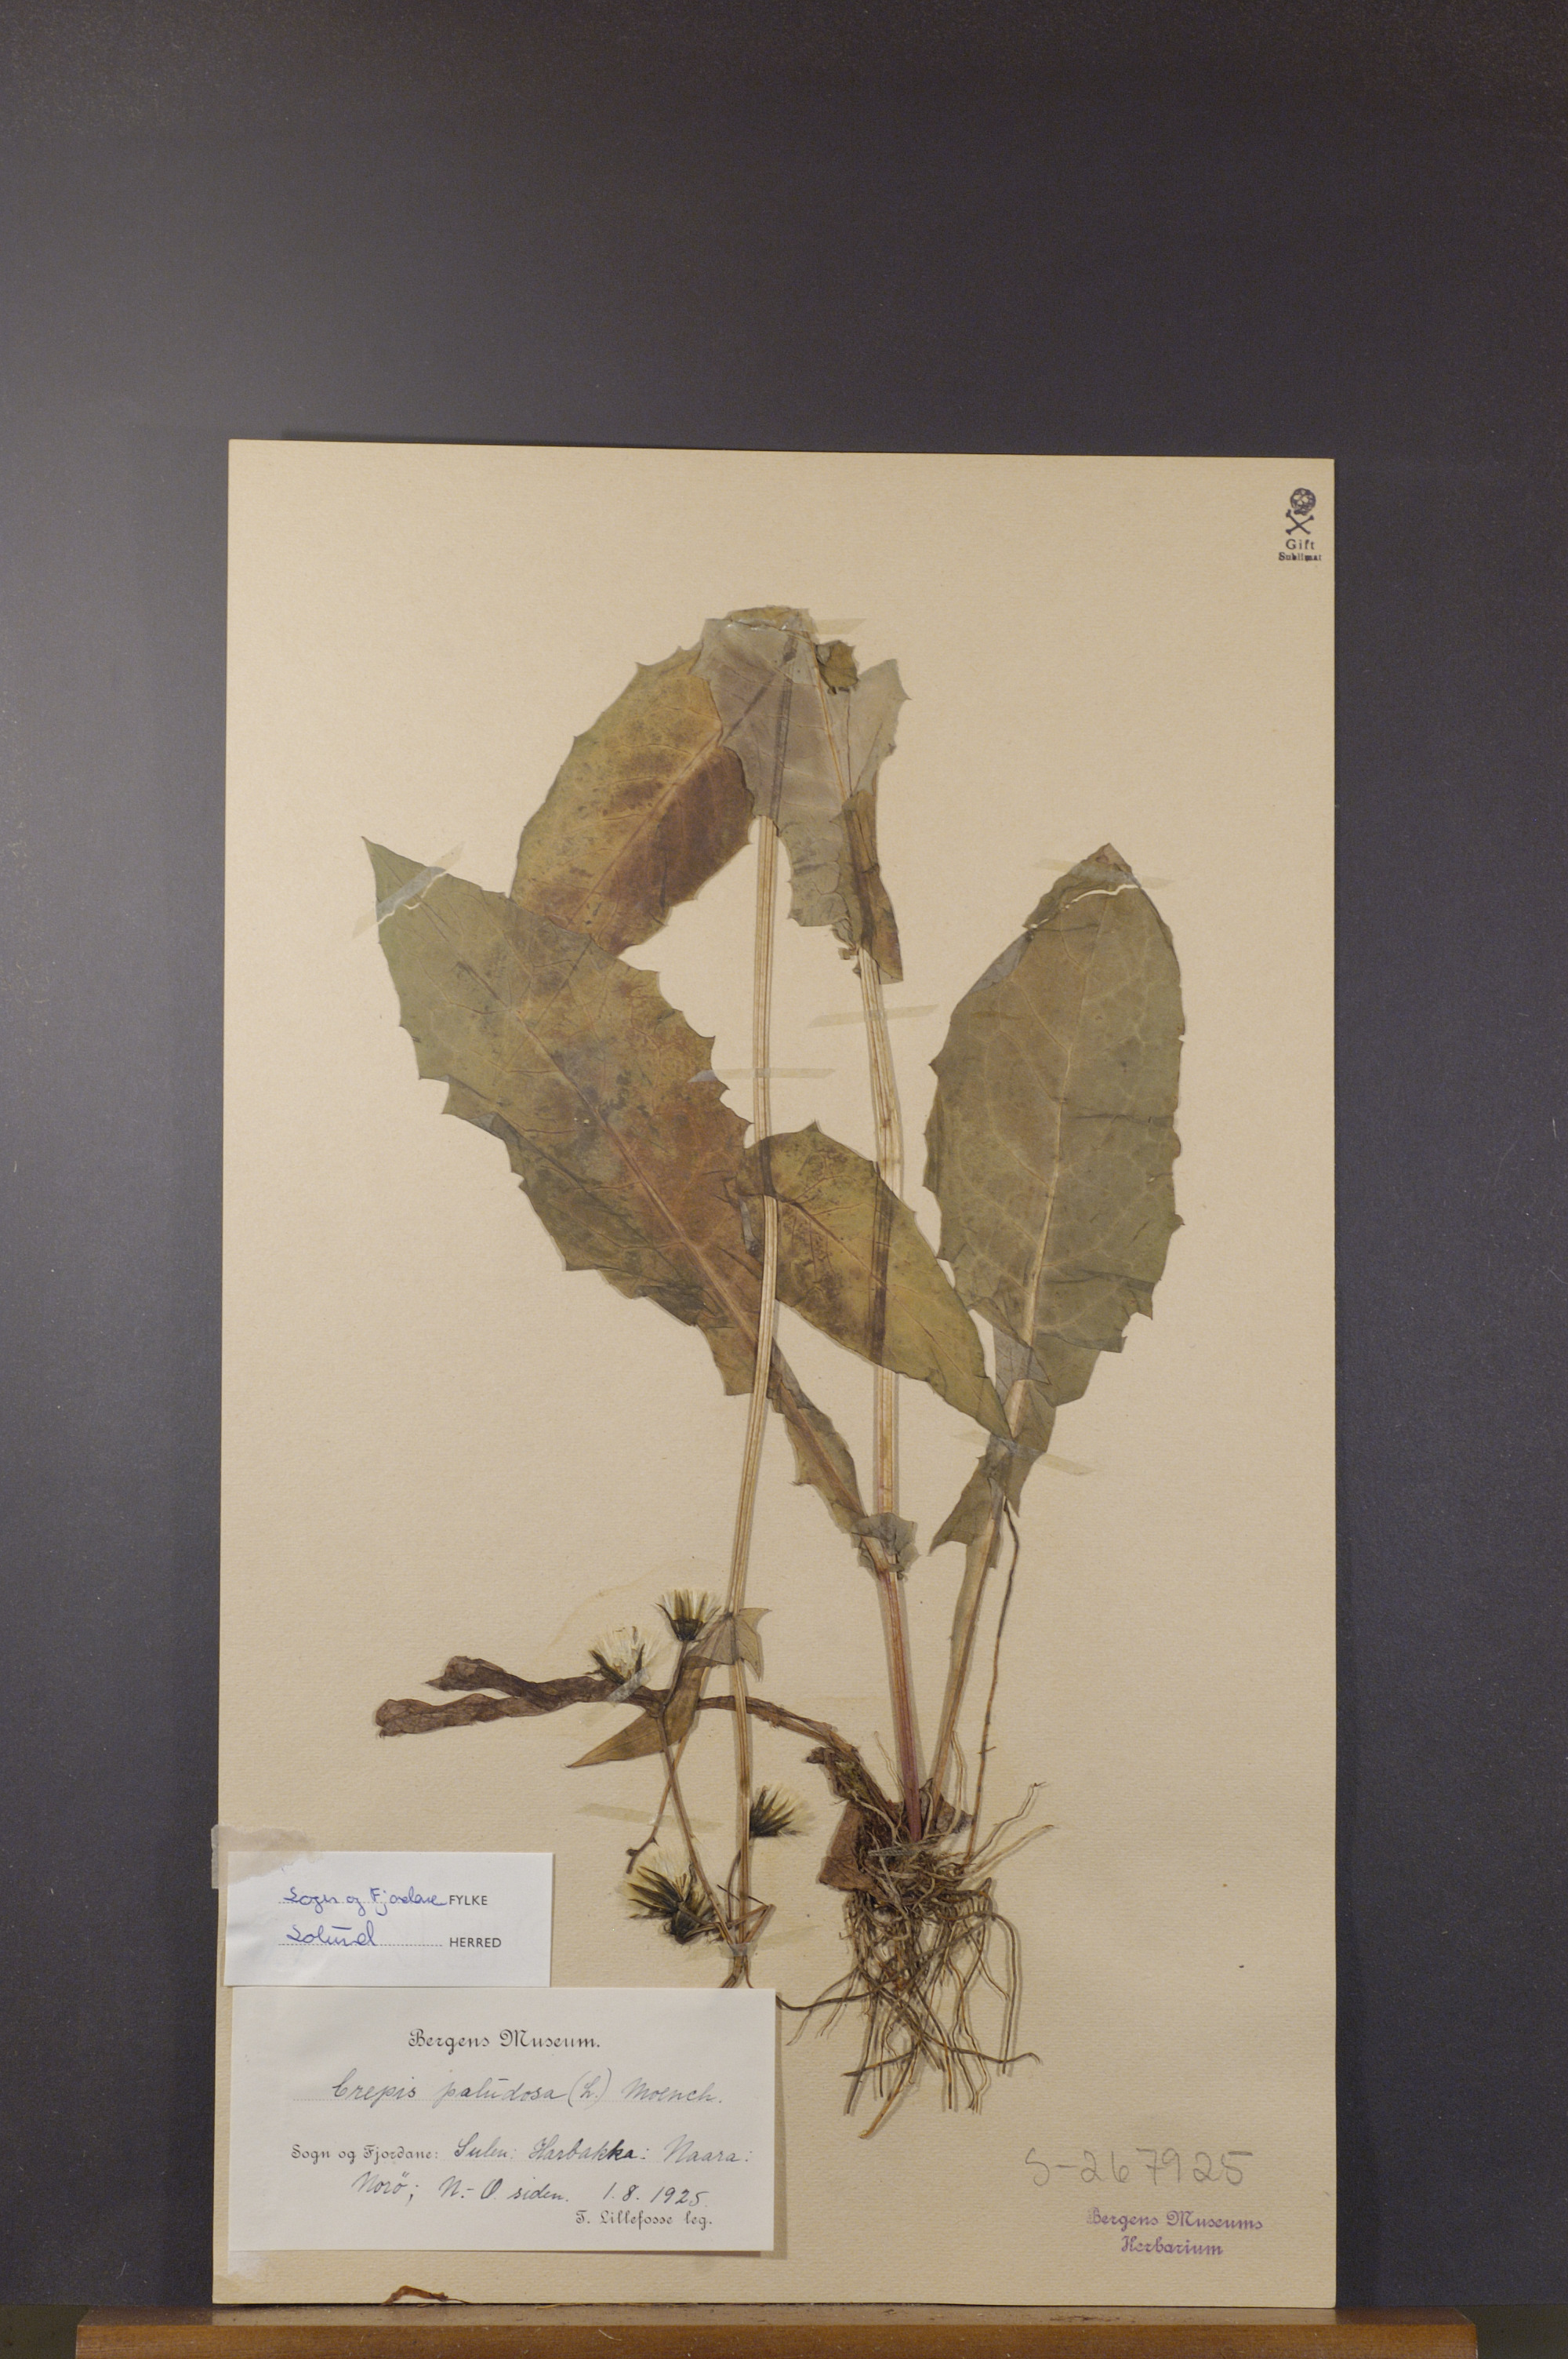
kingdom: Plantae
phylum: Tracheophyta
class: Magnoliopsida
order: Asterales
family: Asteraceae
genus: Crepis
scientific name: Crepis paludosa
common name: Marsh hawk's-beard
